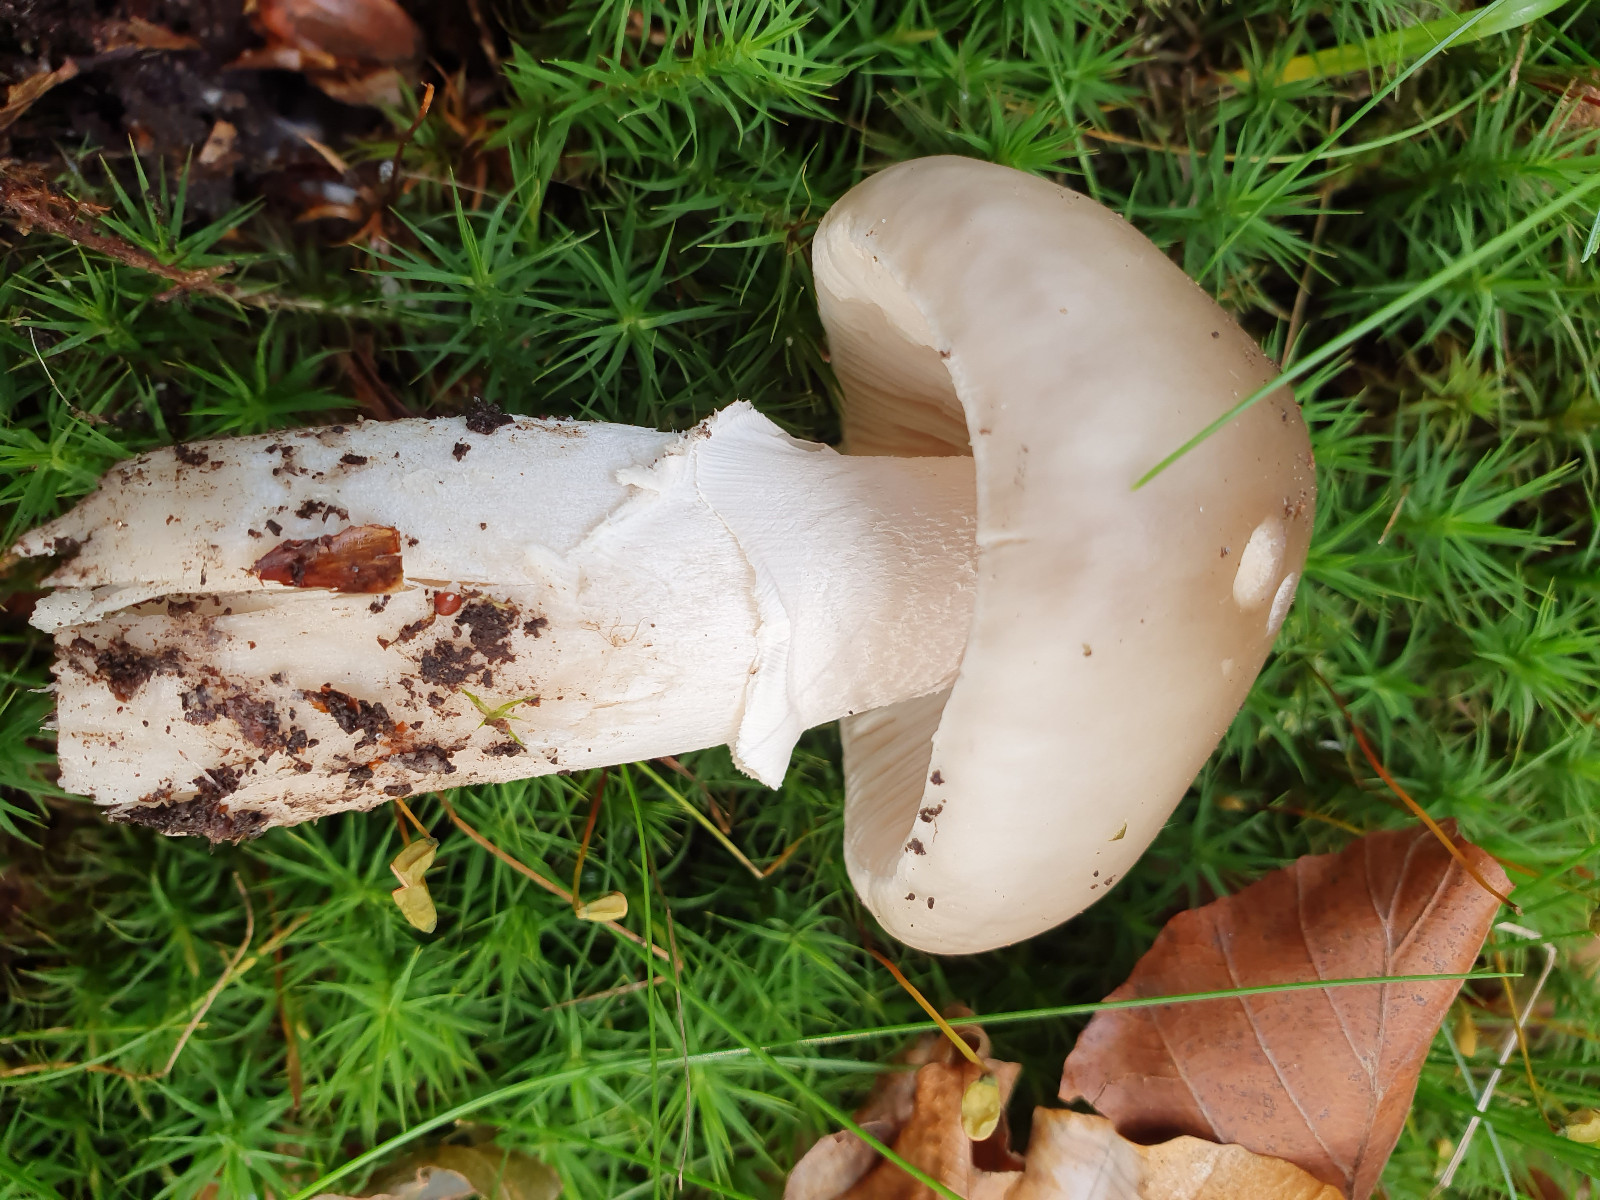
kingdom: Fungi
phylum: Basidiomycota
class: Agaricomycetes
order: Agaricales
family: Amanitaceae
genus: Amanita
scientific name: Amanita porphyria
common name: porfyr-fluesvamp
